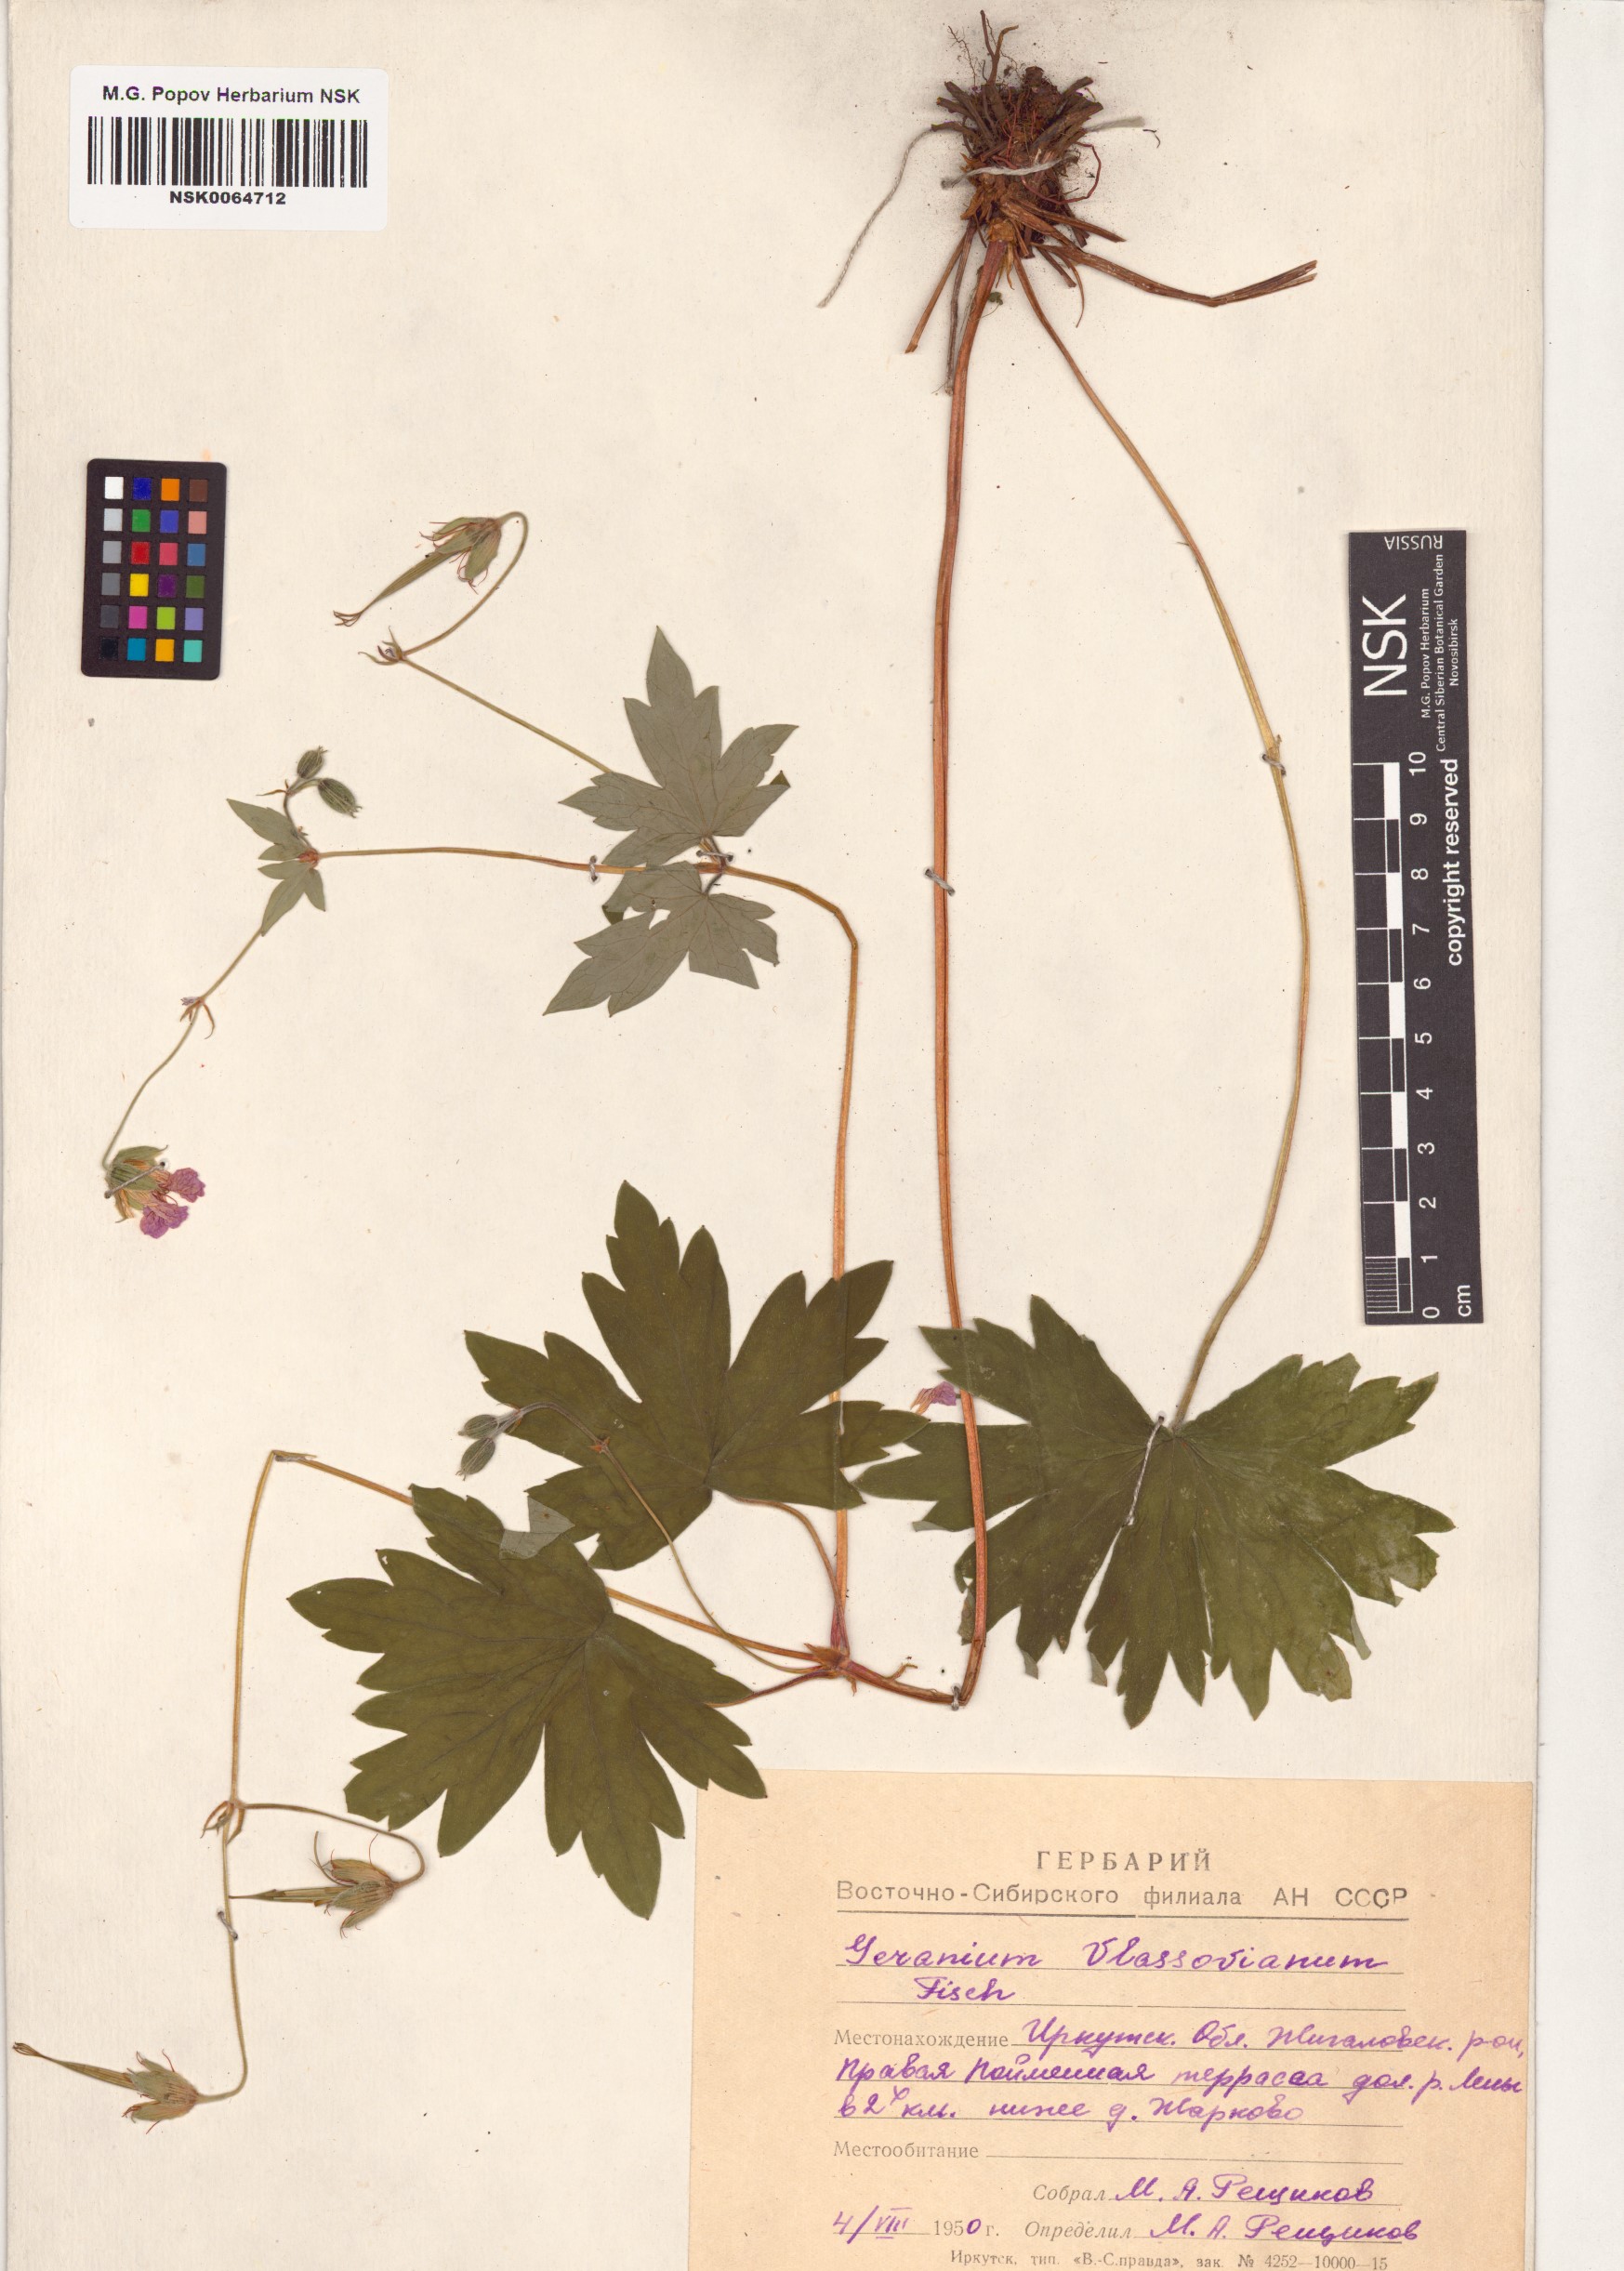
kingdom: Plantae
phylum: Tracheophyta
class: Magnoliopsida
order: Geraniales
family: Geraniaceae
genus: Geranium
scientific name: Geranium wlassovianum
